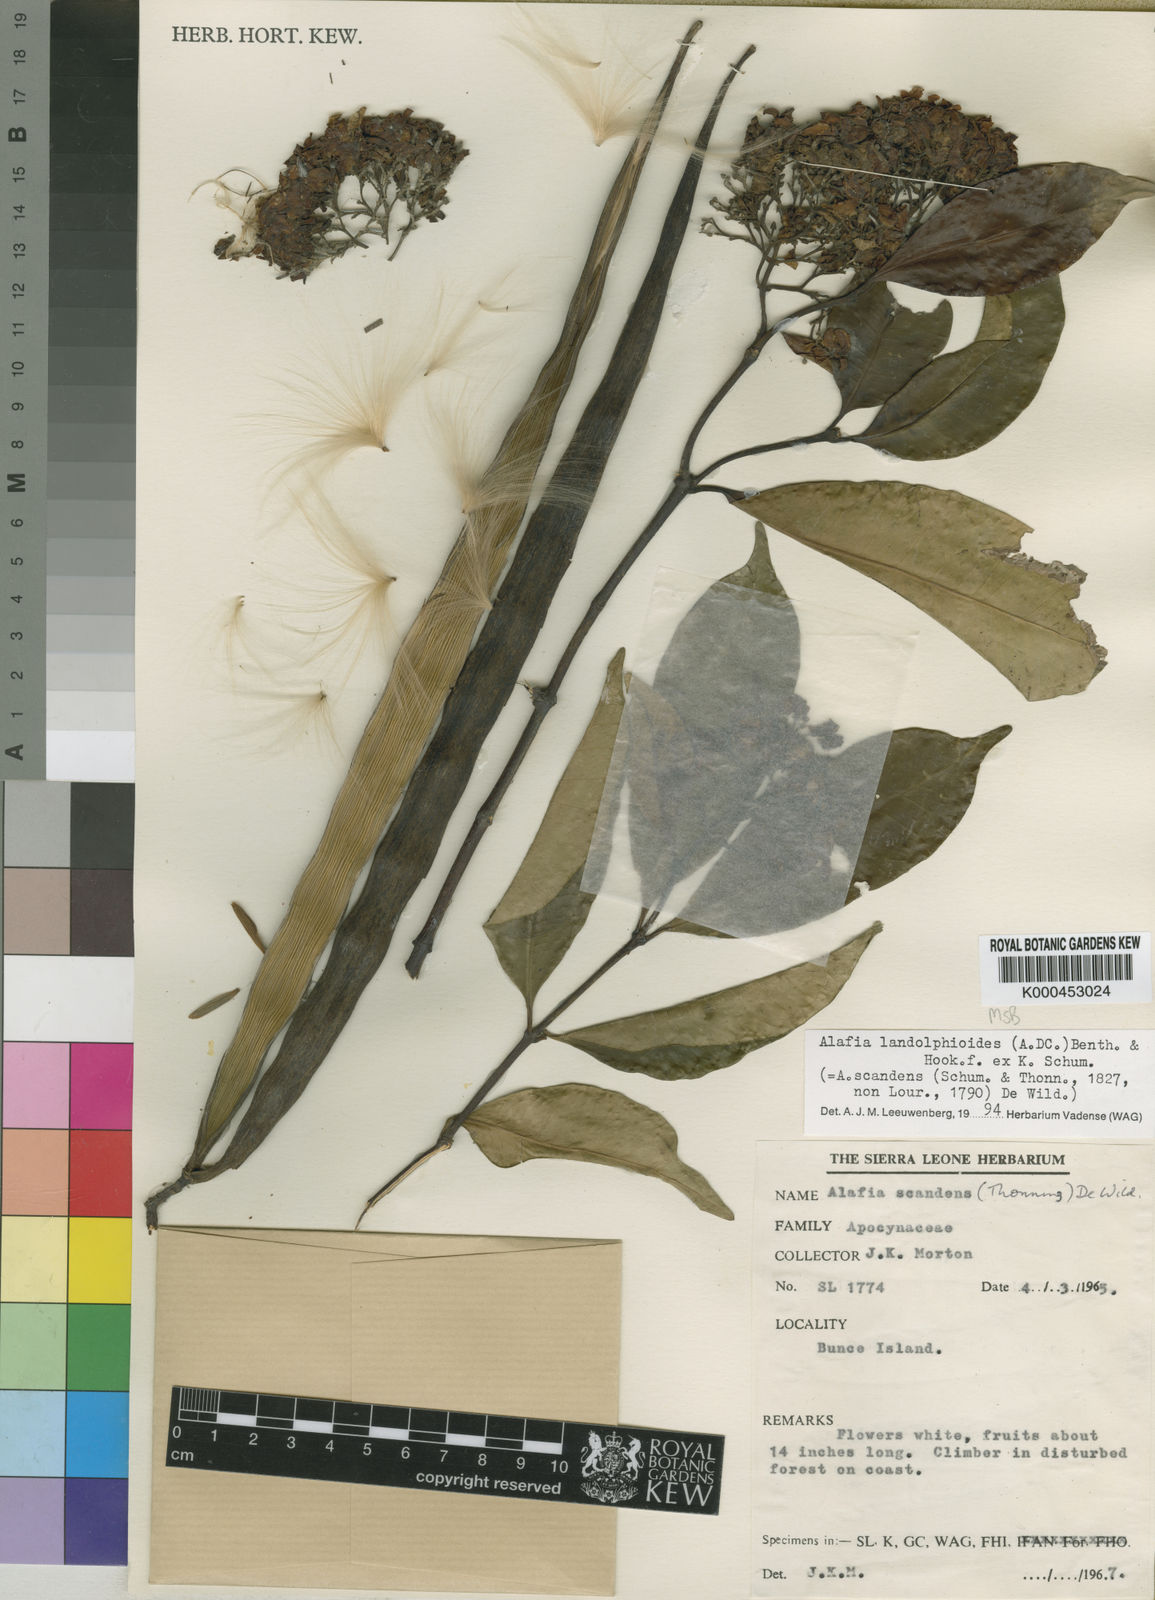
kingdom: Plantae
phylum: Tracheophyta
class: Magnoliopsida
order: Gentianales
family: Apocynaceae
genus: Alafia
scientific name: Alafia scandens
